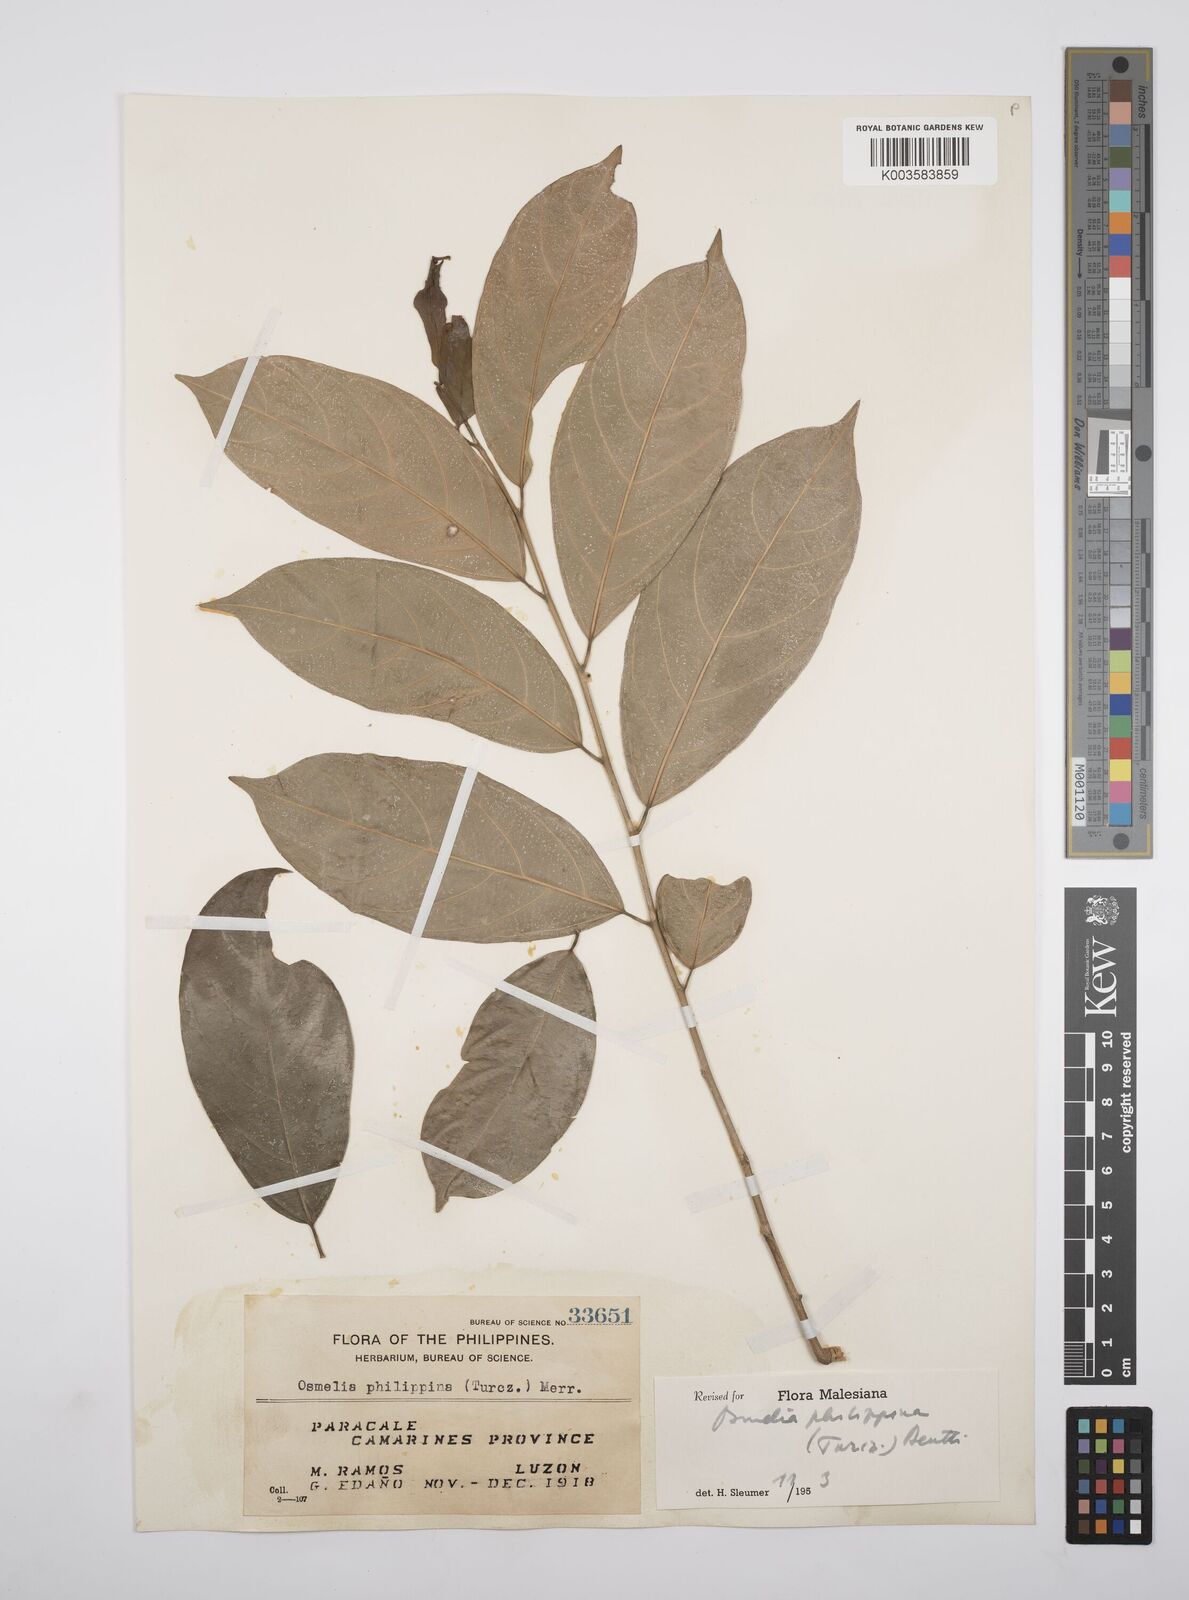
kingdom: Plantae
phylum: Tracheophyta
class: Magnoliopsida
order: Malpighiales
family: Salicaceae
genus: Osmelia
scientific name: Osmelia philippina
